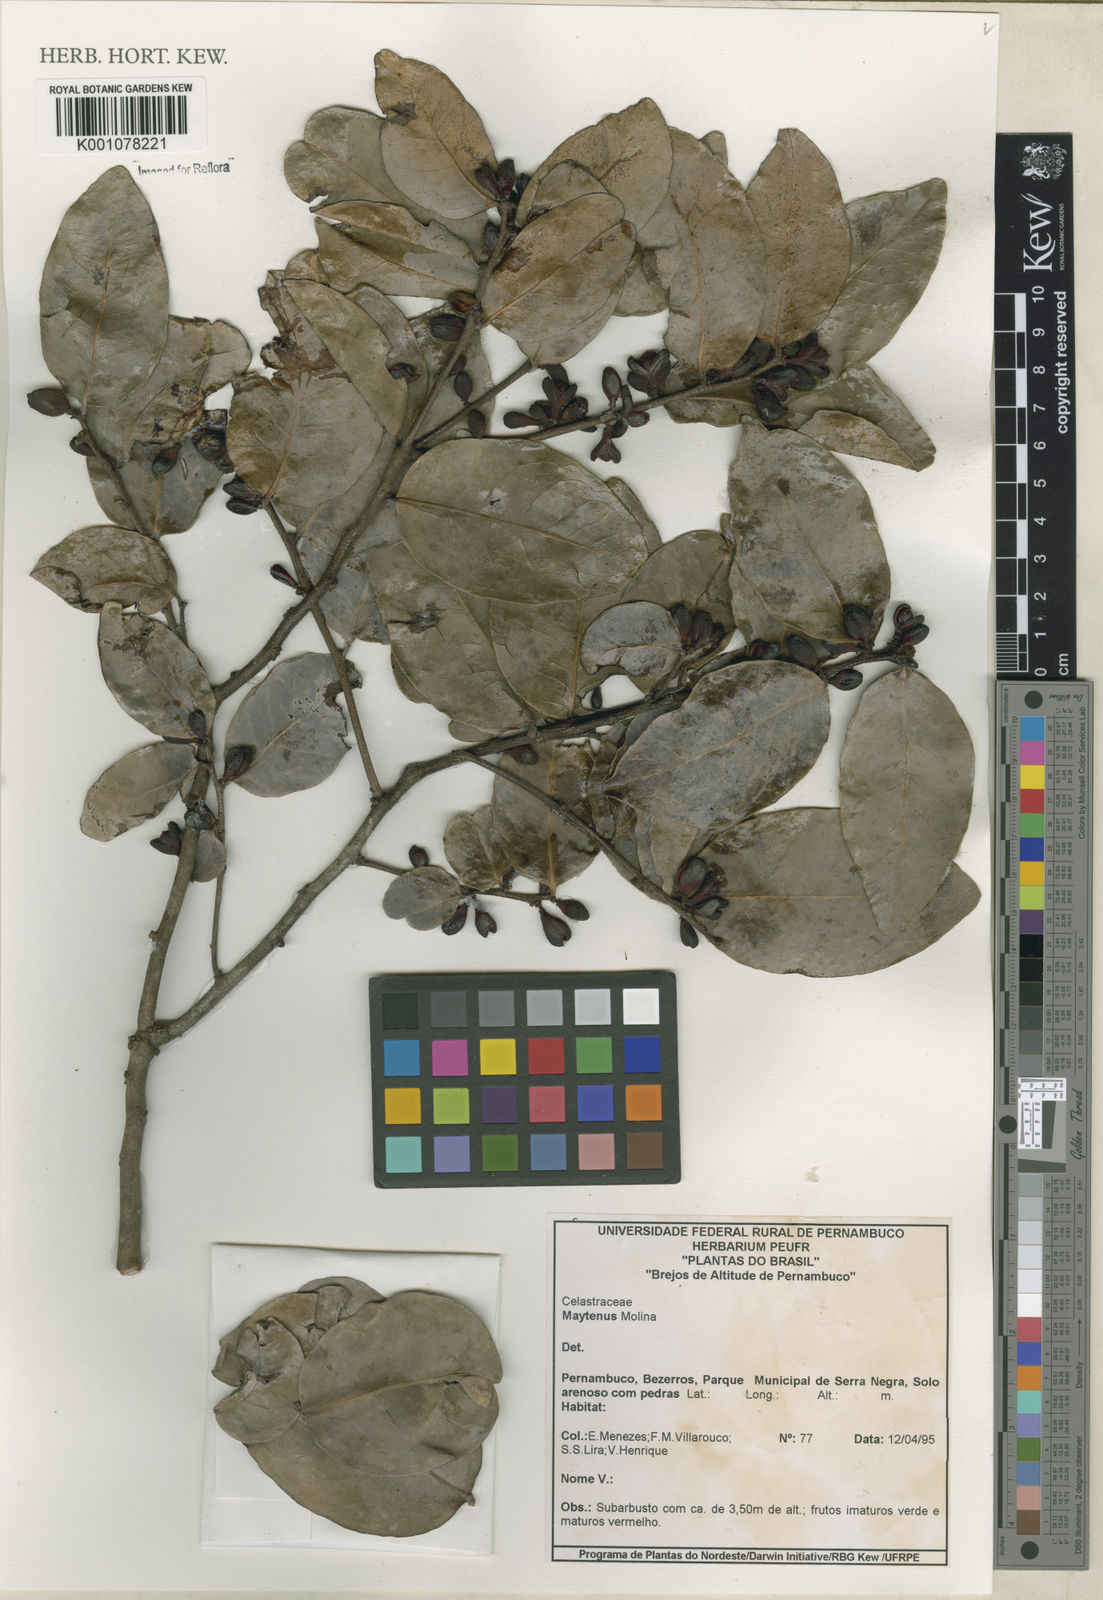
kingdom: Plantae
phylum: Tracheophyta
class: Magnoliopsida
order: Celastrales
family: Celastraceae
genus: Maytenus
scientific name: Maytenus
